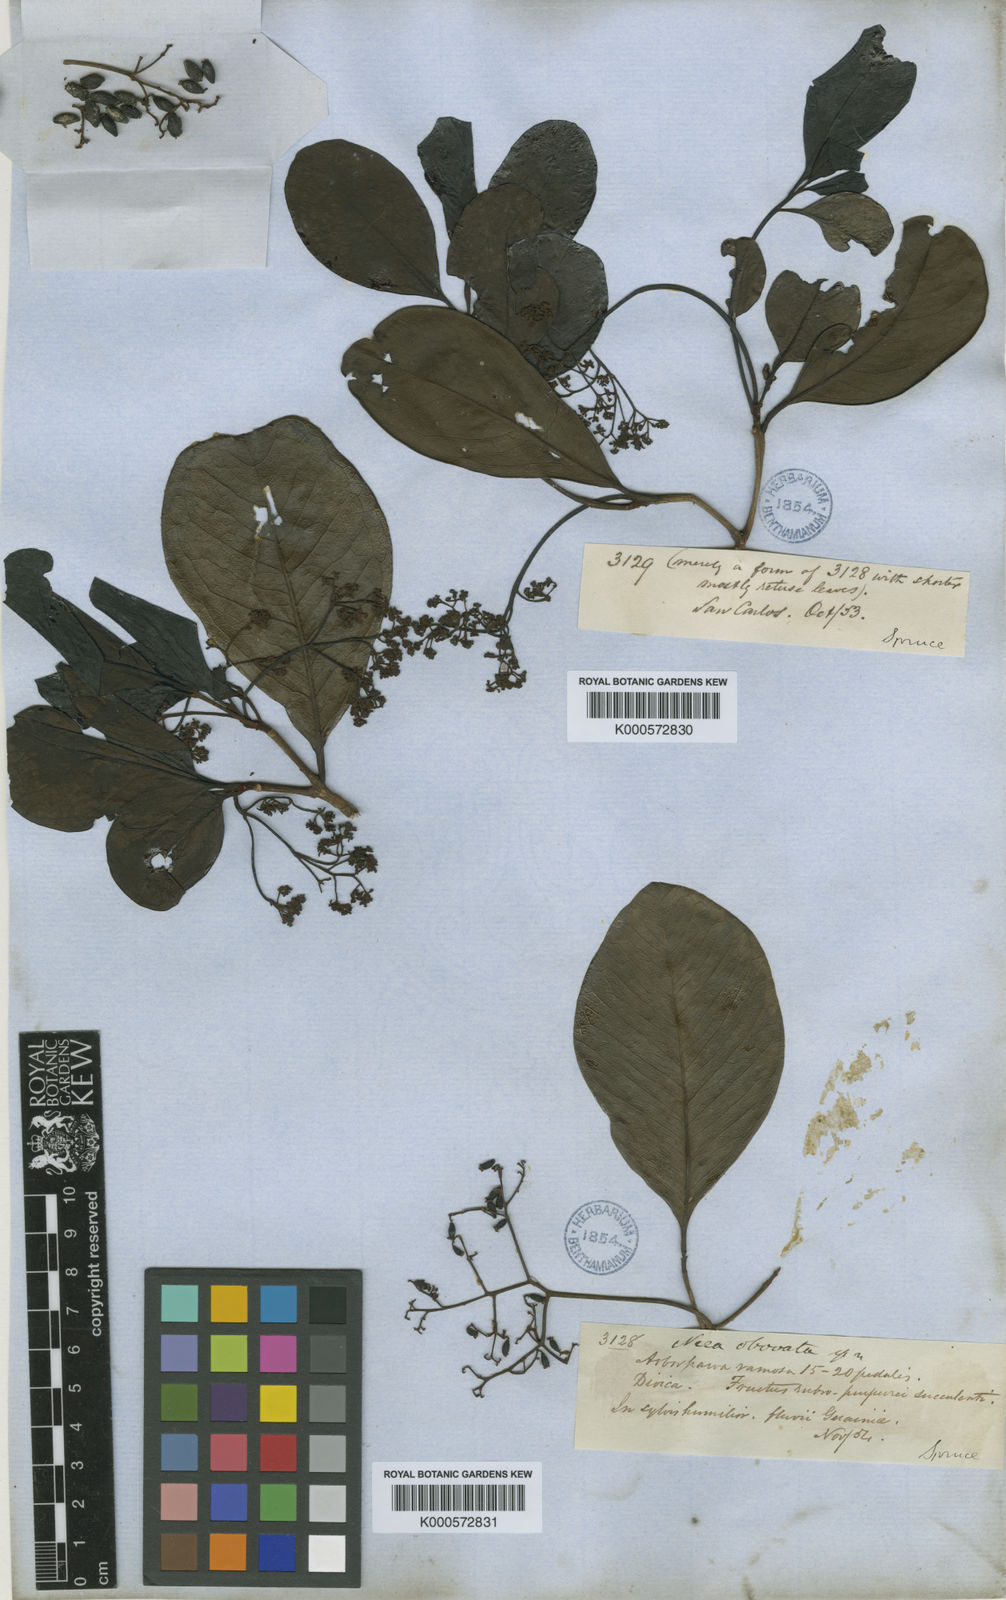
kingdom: Plantae
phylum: Tracheophyta
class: Magnoliopsida
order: Caryophyllales
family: Nyctaginaceae
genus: Neea
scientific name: Neea obovata
